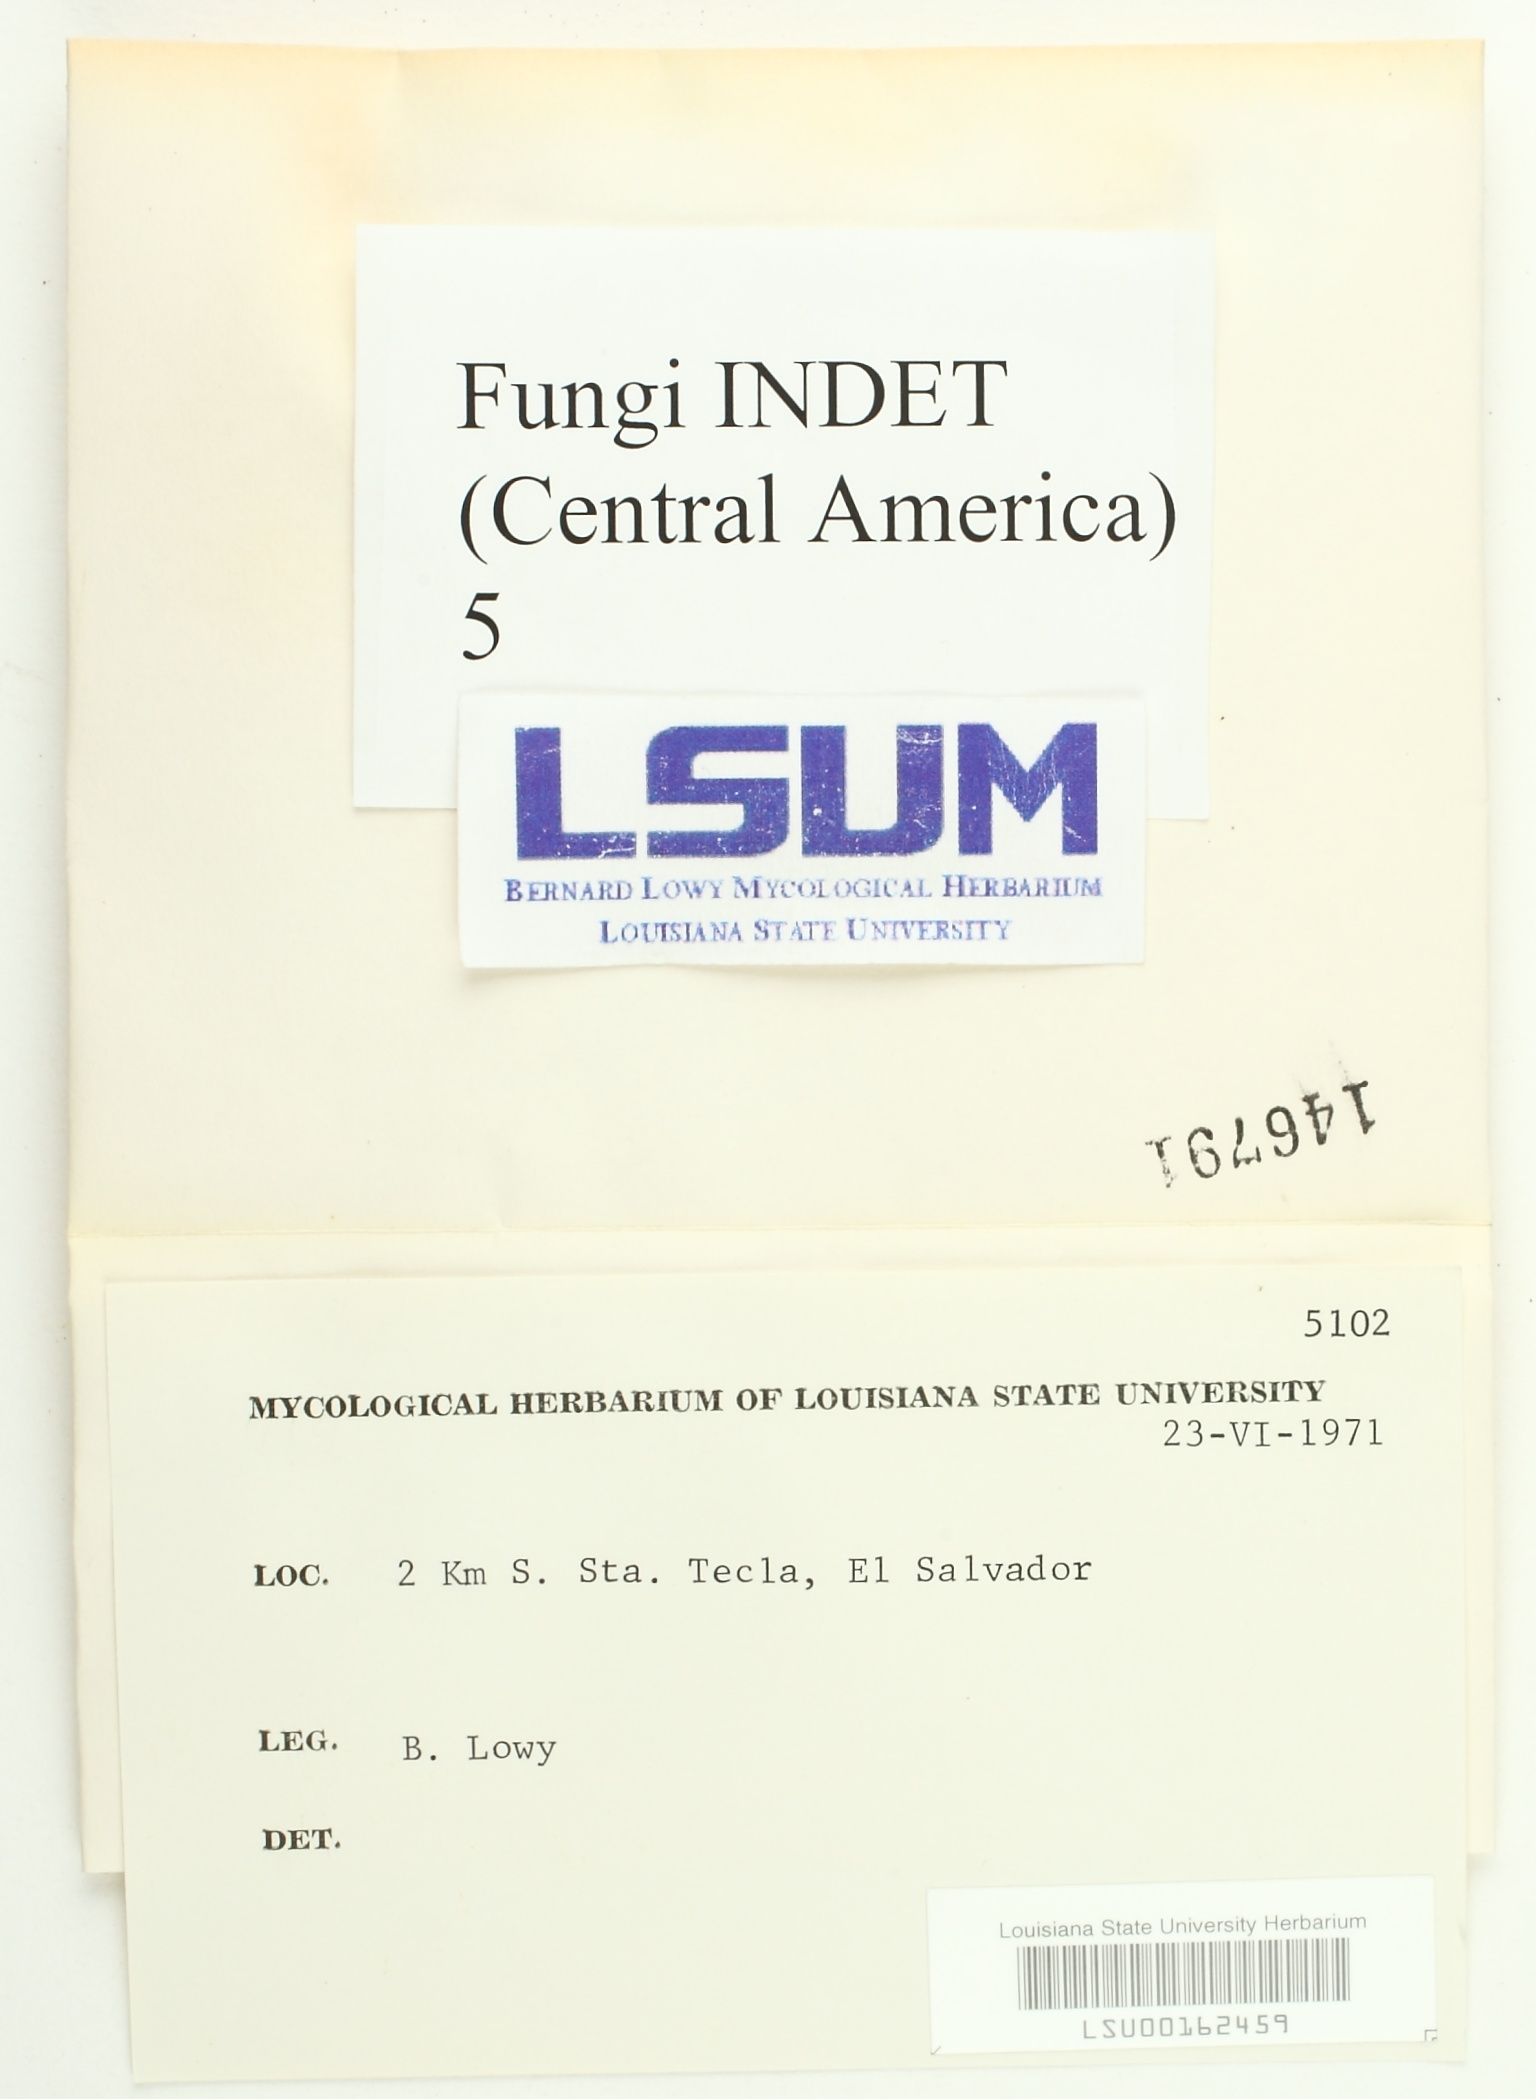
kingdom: Fungi
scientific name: Fungi
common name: Fungi
